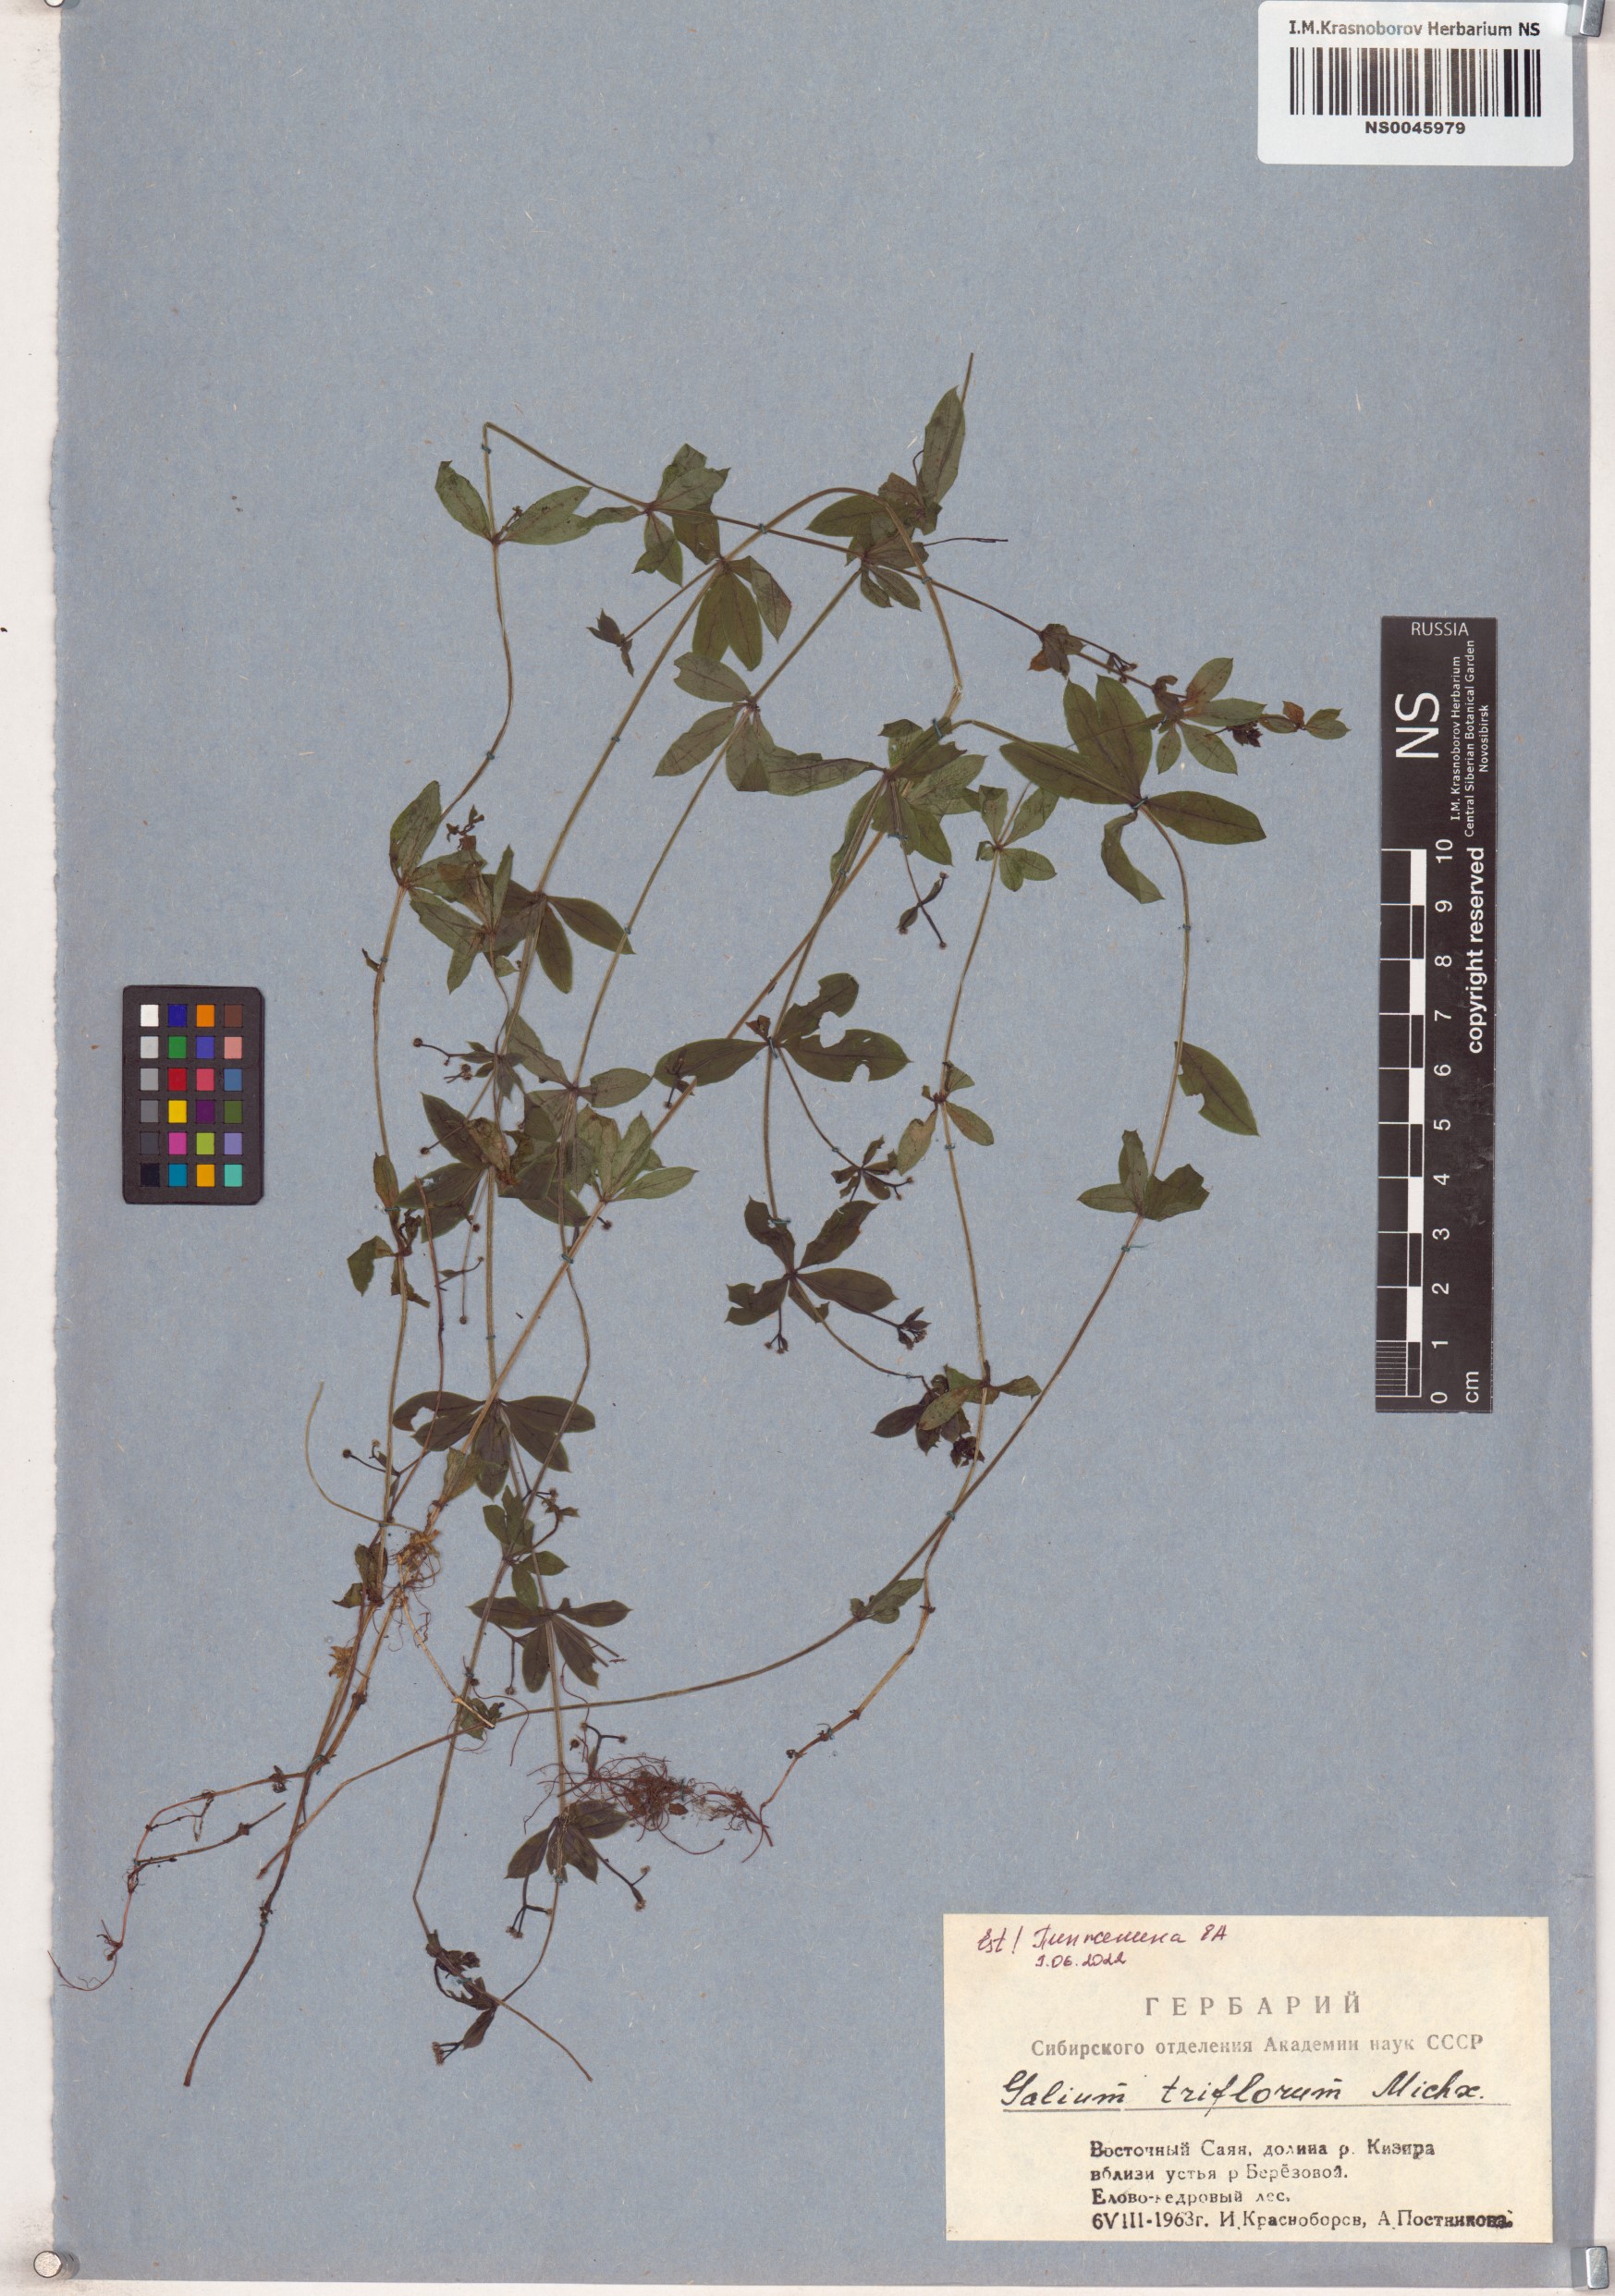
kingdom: Plantae
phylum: Tracheophyta
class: Magnoliopsida
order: Gentianales
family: Rubiaceae
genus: Galium
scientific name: Galium triflorum
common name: Fragrant bedstraw
